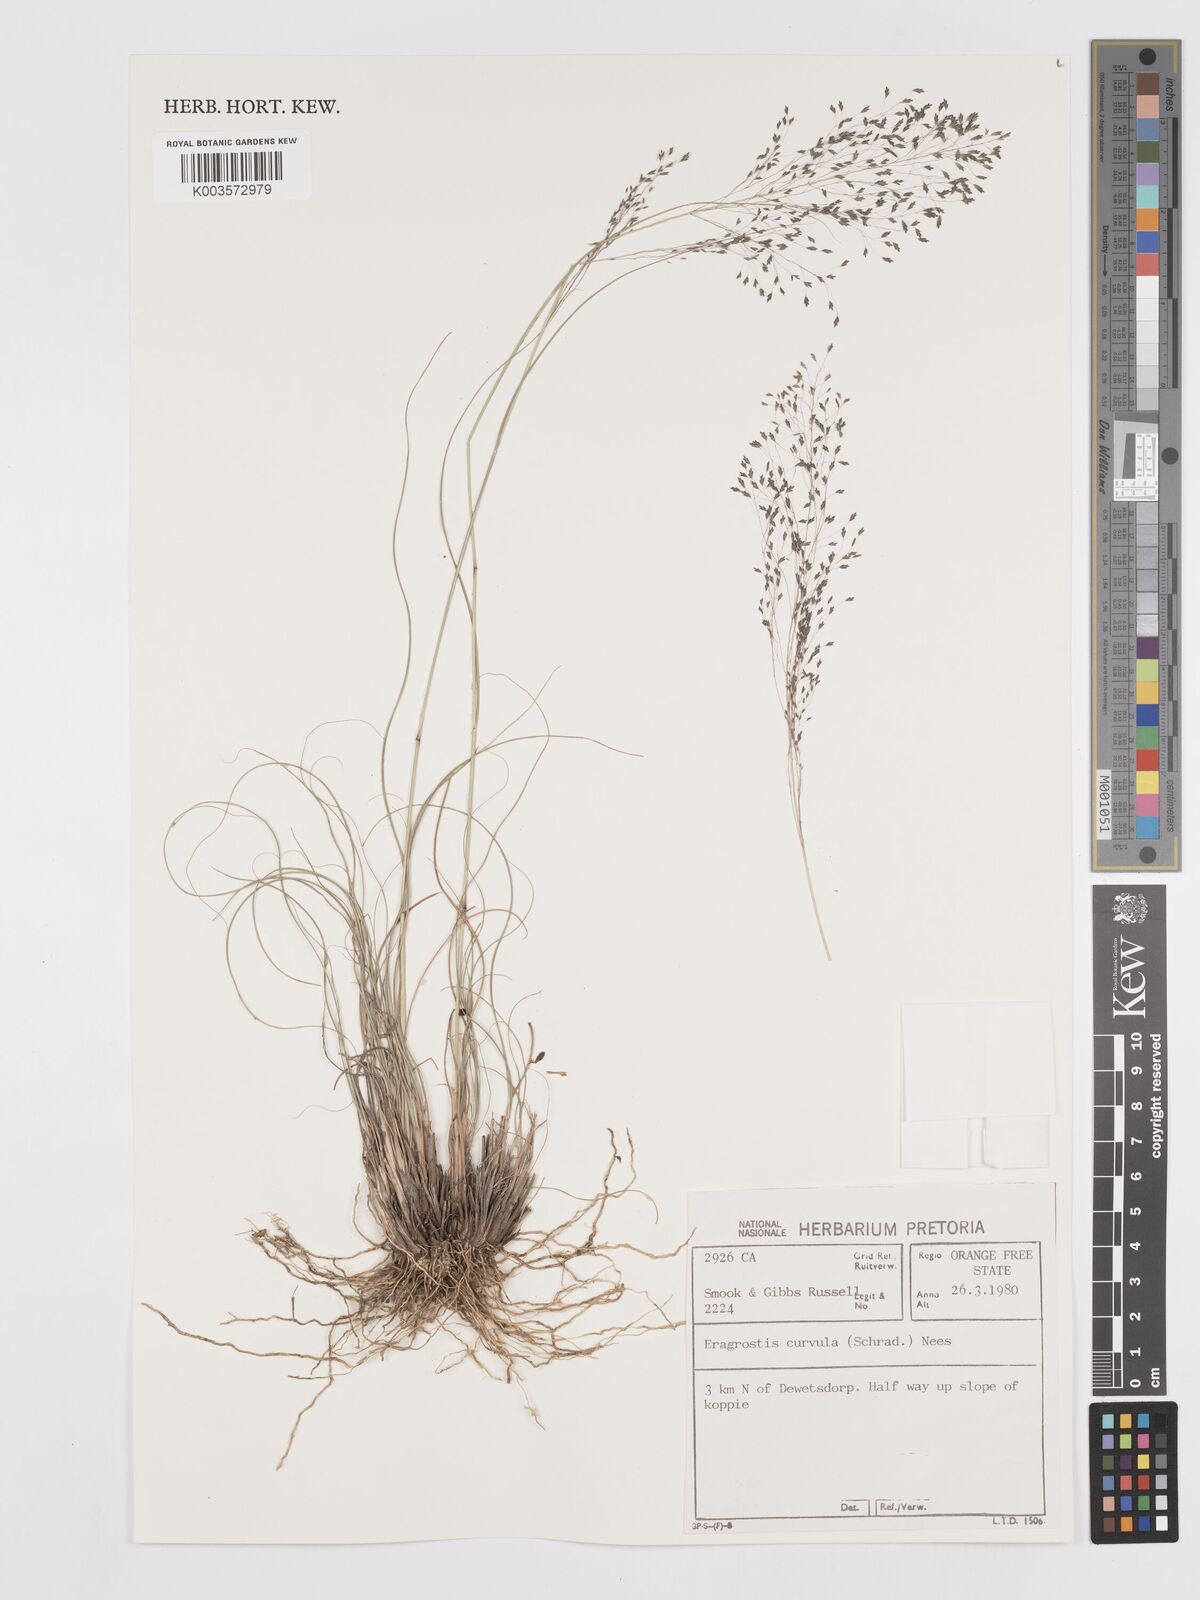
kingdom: Plantae
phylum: Tracheophyta
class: Liliopsida
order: Poales
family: Poaceae
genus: Eragrostis
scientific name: Eragrostis curvula
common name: African love-grass
